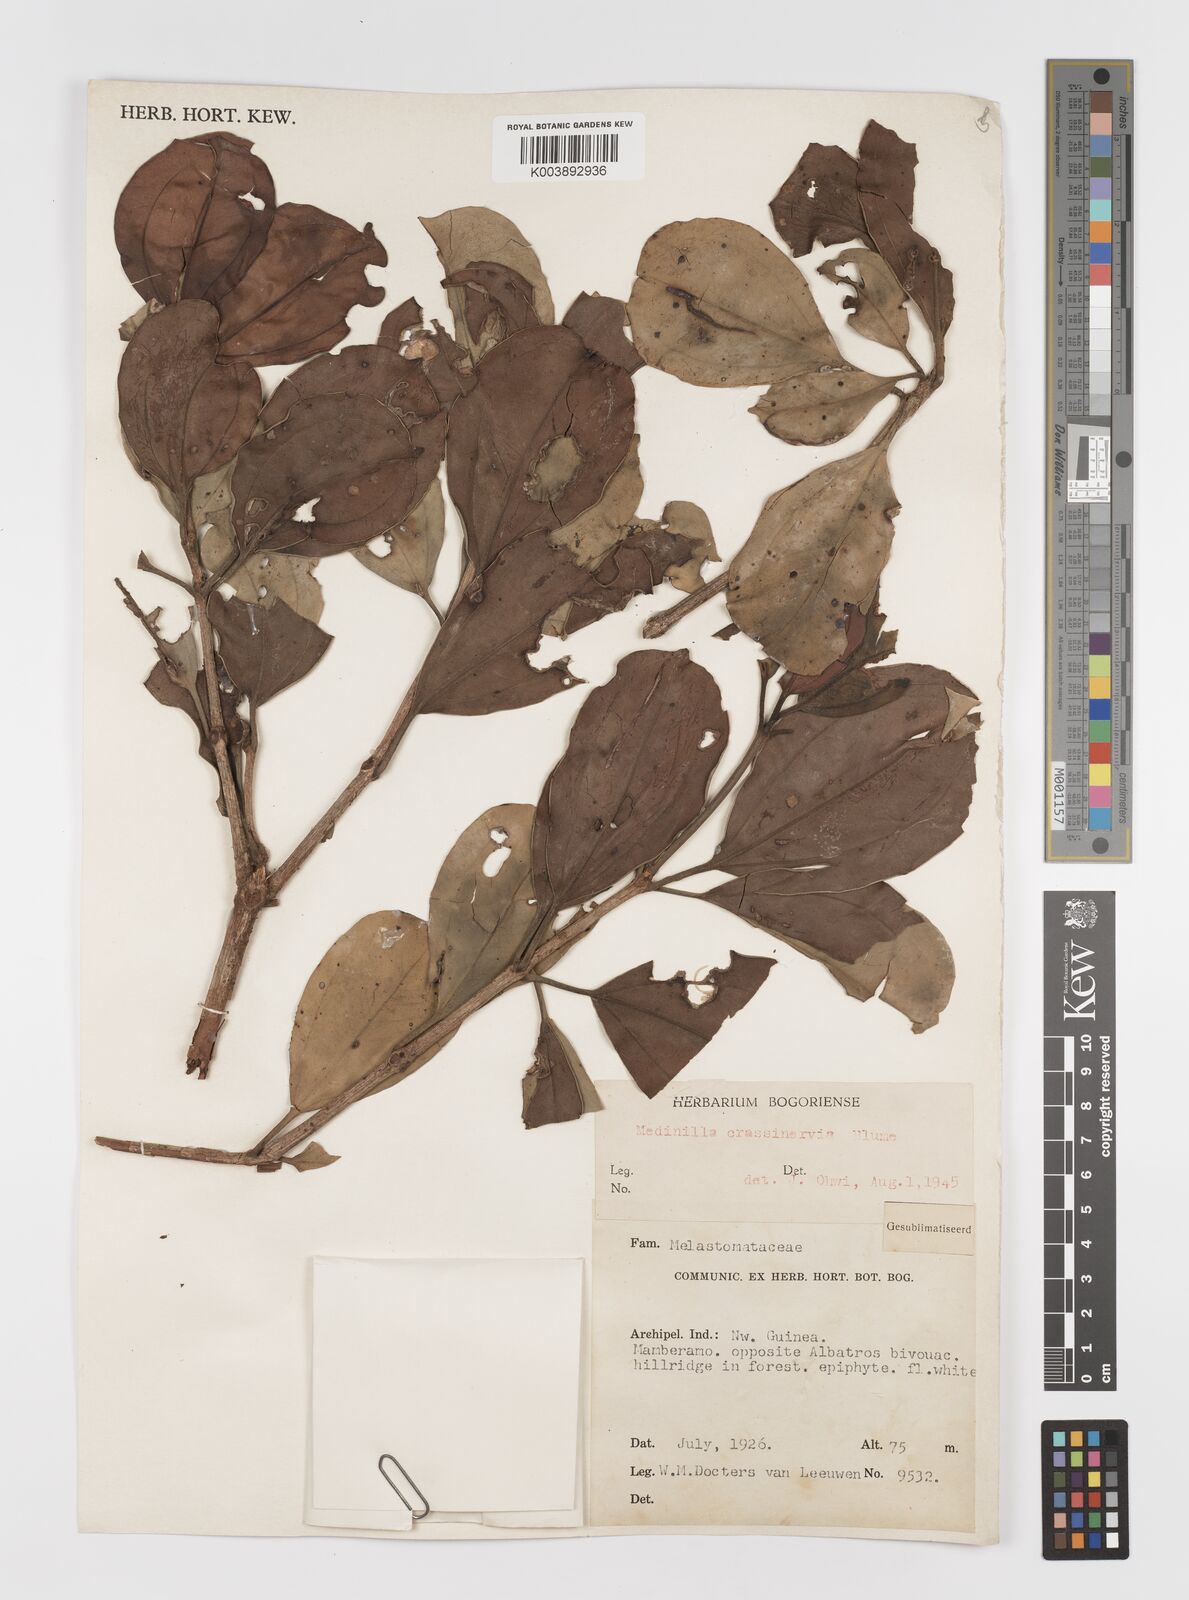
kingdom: Plantae
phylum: Tracheophyta
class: Magnoliopsida
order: Myrtales
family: Melastomataceae
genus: Medinilla
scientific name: Medinilla crassinervia
